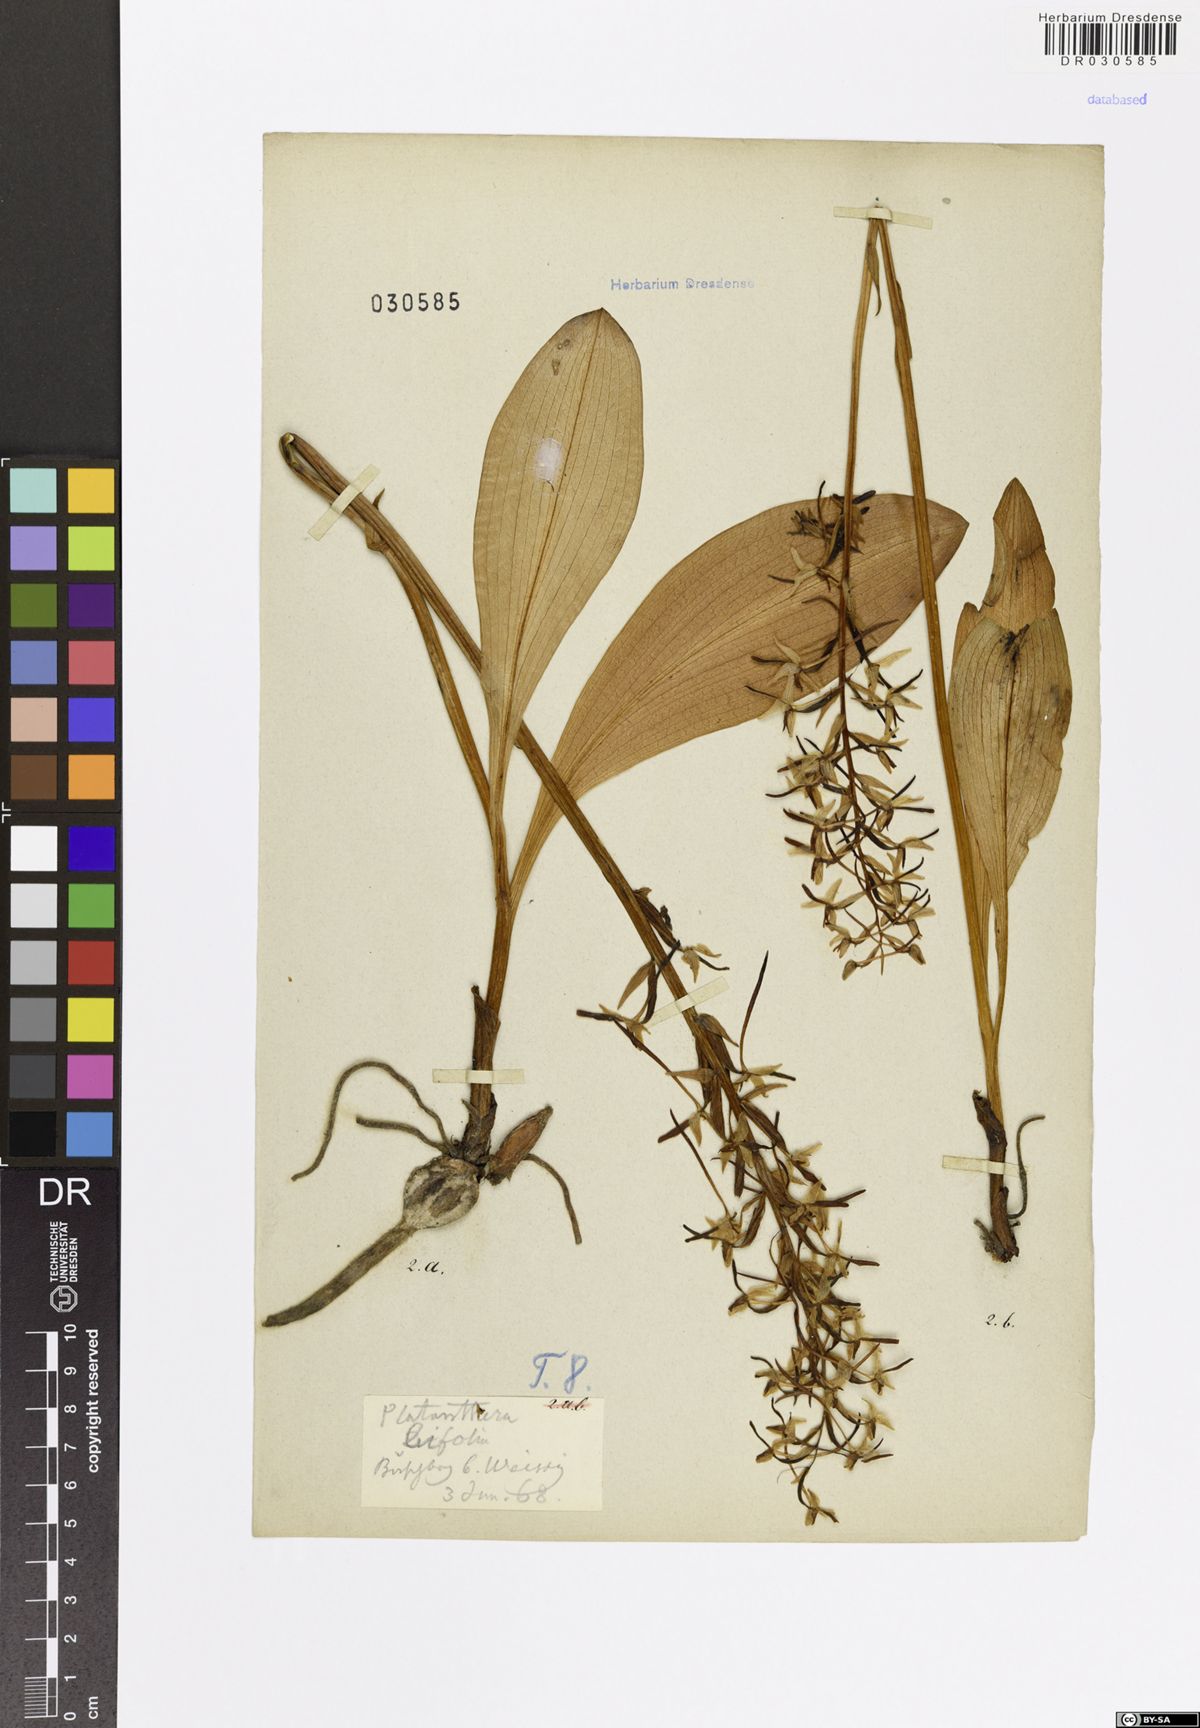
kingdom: Plantae
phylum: Tracheophyta
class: Liliopsida
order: Asparagales
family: Orchidaceae
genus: Platanthera
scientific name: Platanthera bifolia
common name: Lesser butterfly-orchid
